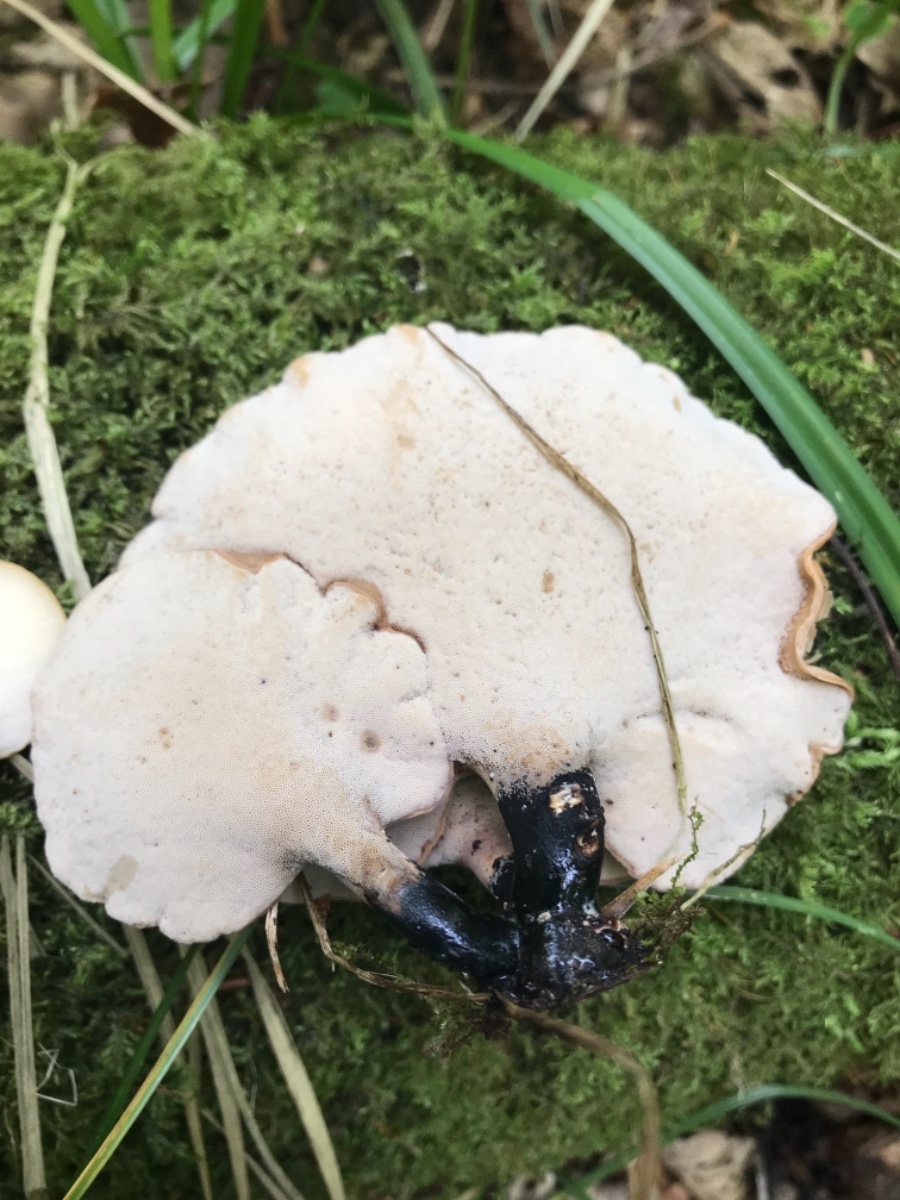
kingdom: Fungi
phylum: Basidiomycota
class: Agaricomycetes
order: Polyporales
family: Polyporaceae
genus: Cerioporus
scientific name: Cerioporus varius
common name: foranderlig stilkporesvamp
